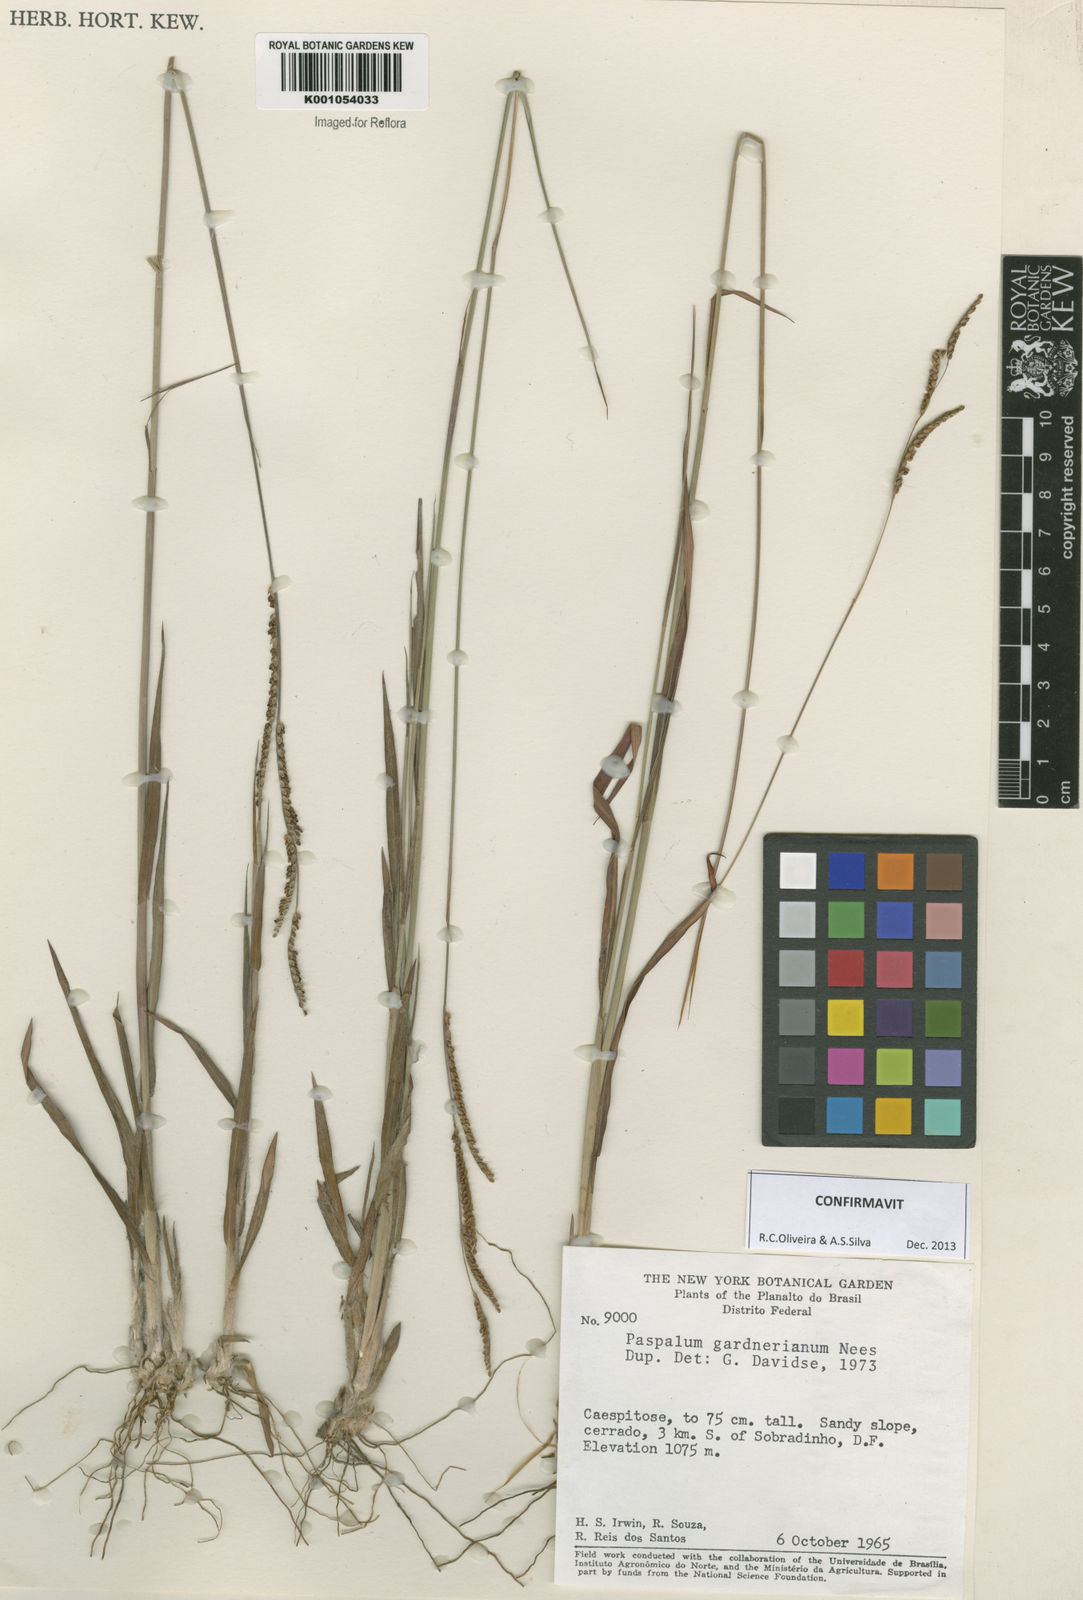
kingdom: Plantae
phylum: Tracheophyta
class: Liliopsida
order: Poales
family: Poaceae
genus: Paspalum
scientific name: Paspalum gardnerianum
